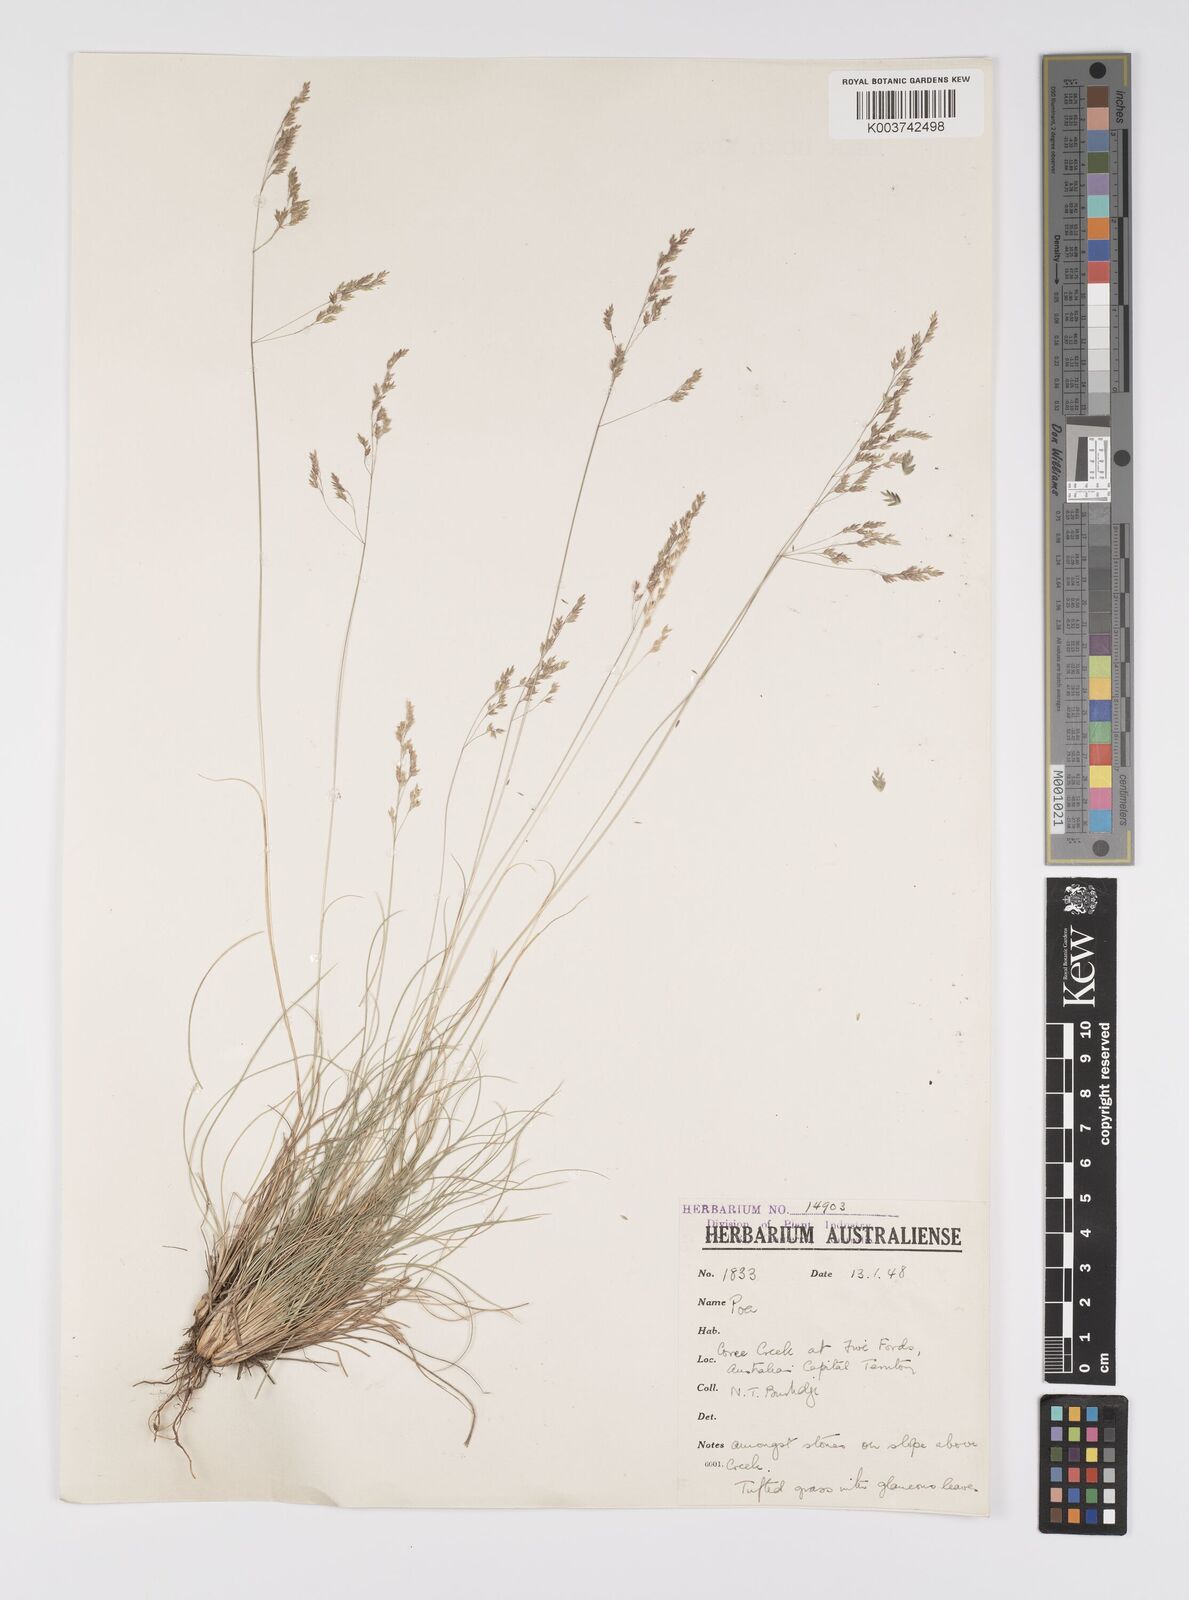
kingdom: Plantae
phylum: Tracheophyta
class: Liliopsida
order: Poales
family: Poaceae
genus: Poa
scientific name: Poa
